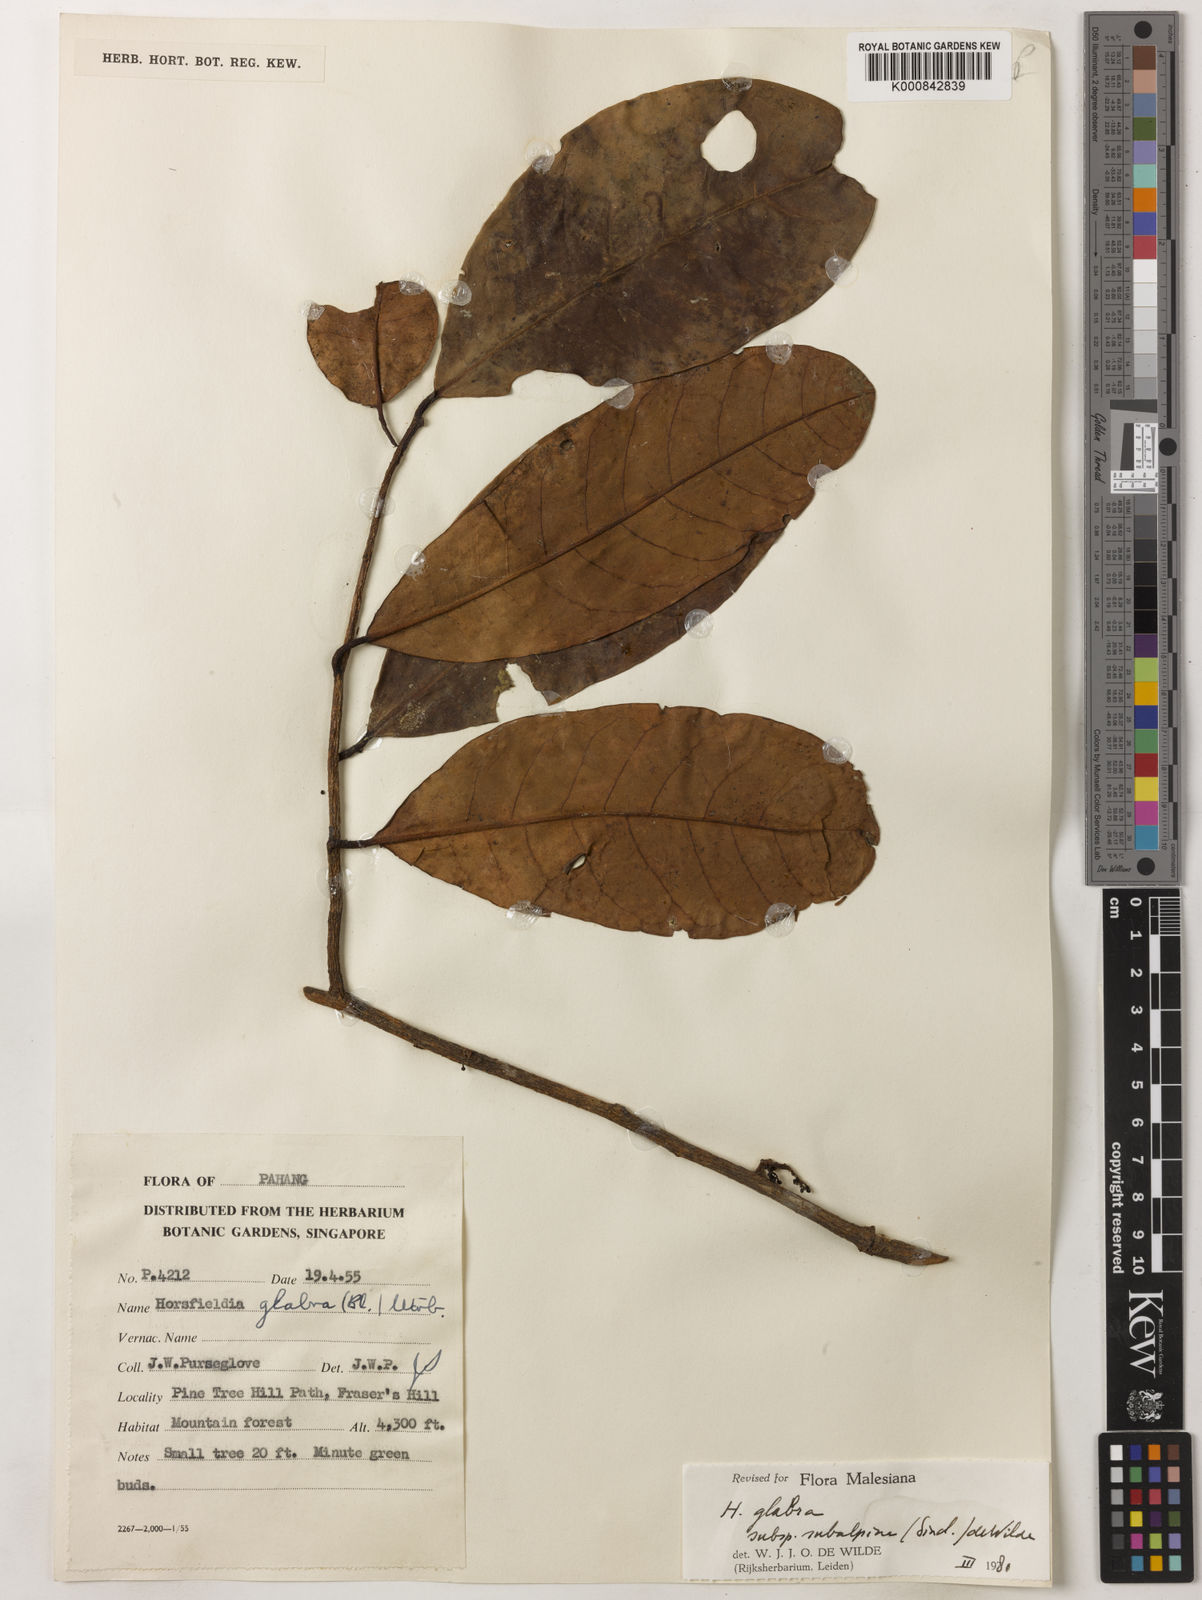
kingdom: Plantae
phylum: Tracheophyta
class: Magnoliopsida
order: Magnoliales
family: Myristicaceae
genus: Horsfieldia
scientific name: Horsfieldia
